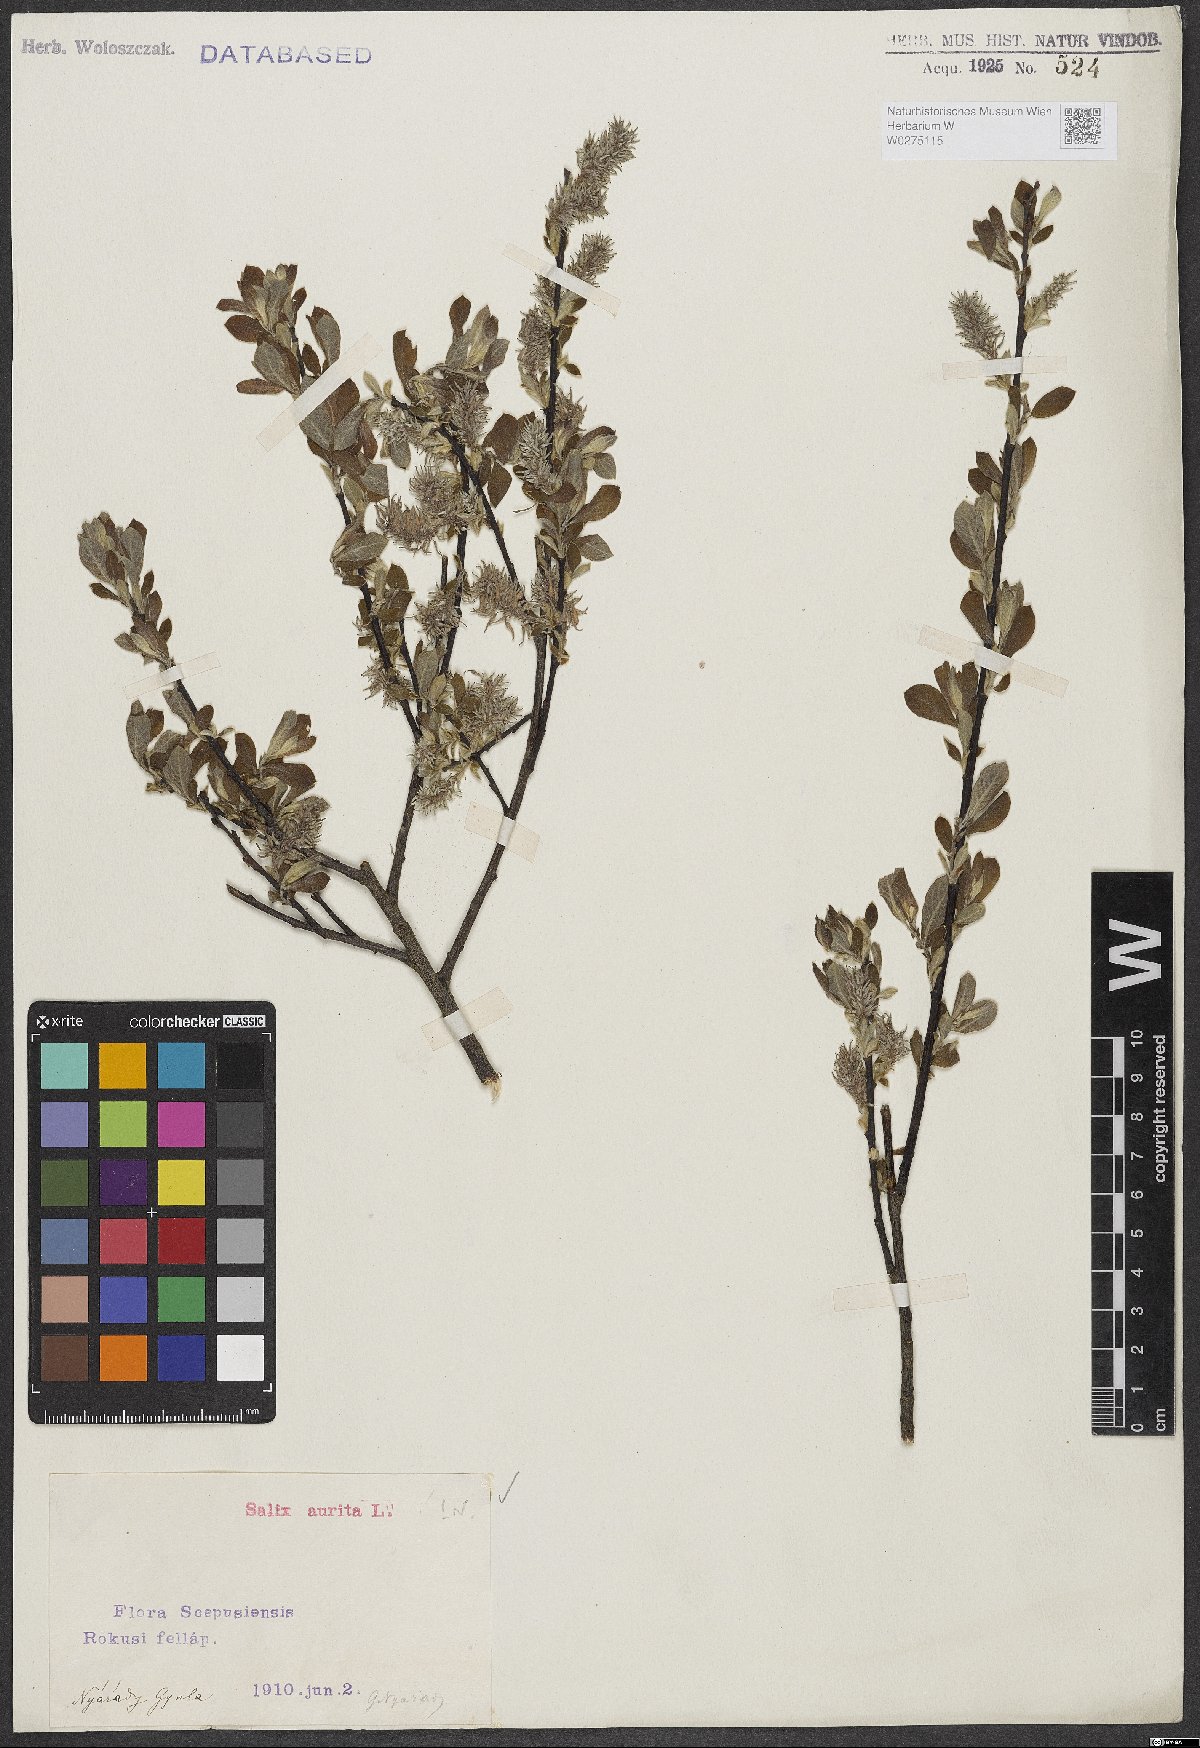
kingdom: Plantae
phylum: Tracheophyta
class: Magnoliopsida
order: Malpighiales
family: Salicaceae
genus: Salix
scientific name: Salix aurita
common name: Eared willow
